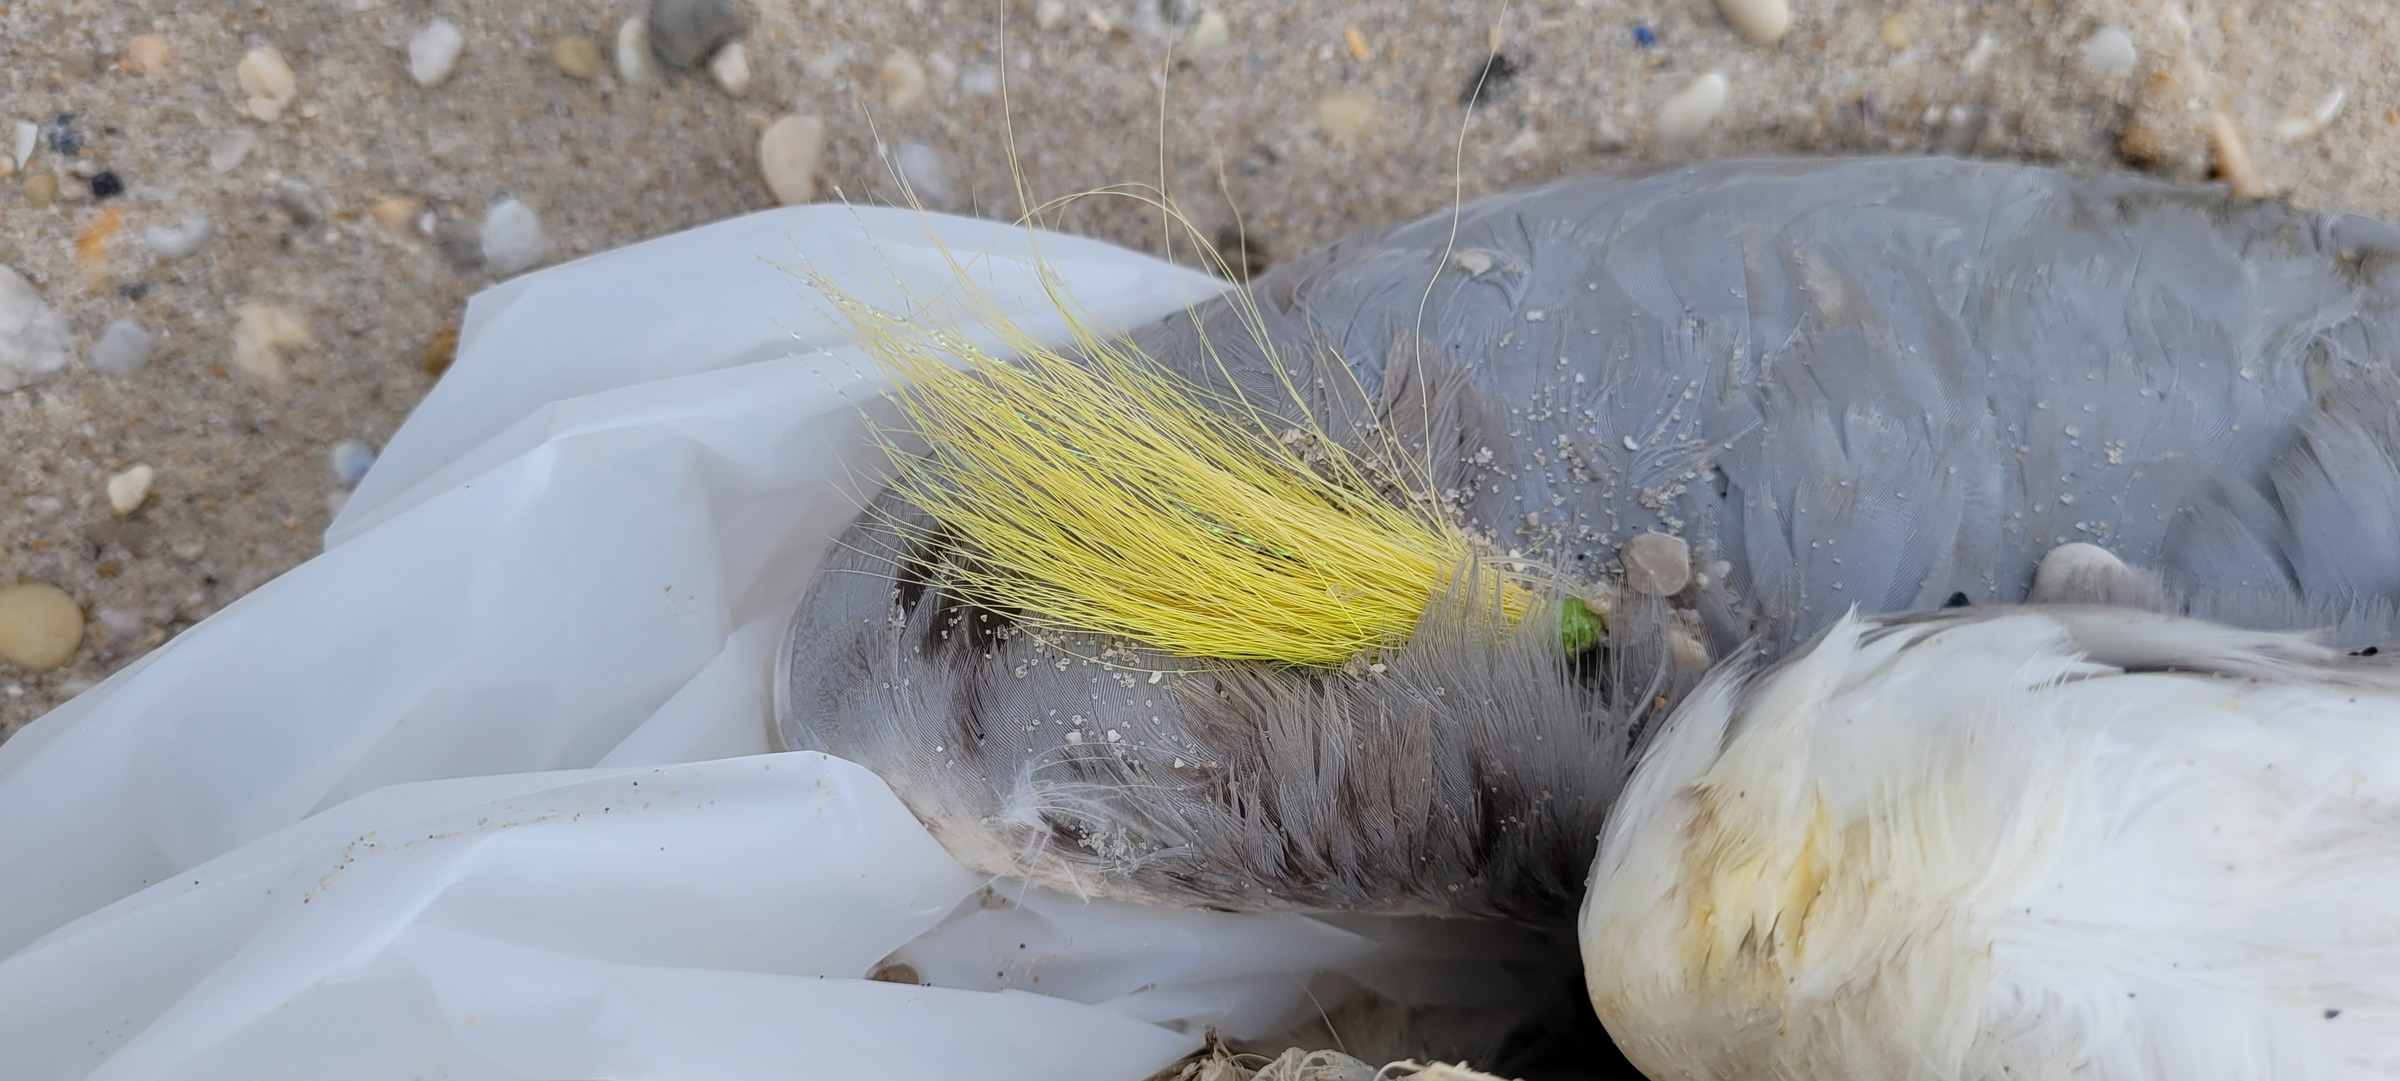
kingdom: Animalia
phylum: Chordata
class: Aves
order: Charadriiformes
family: Laridae
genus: Larus
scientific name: Larus smithsonianus
